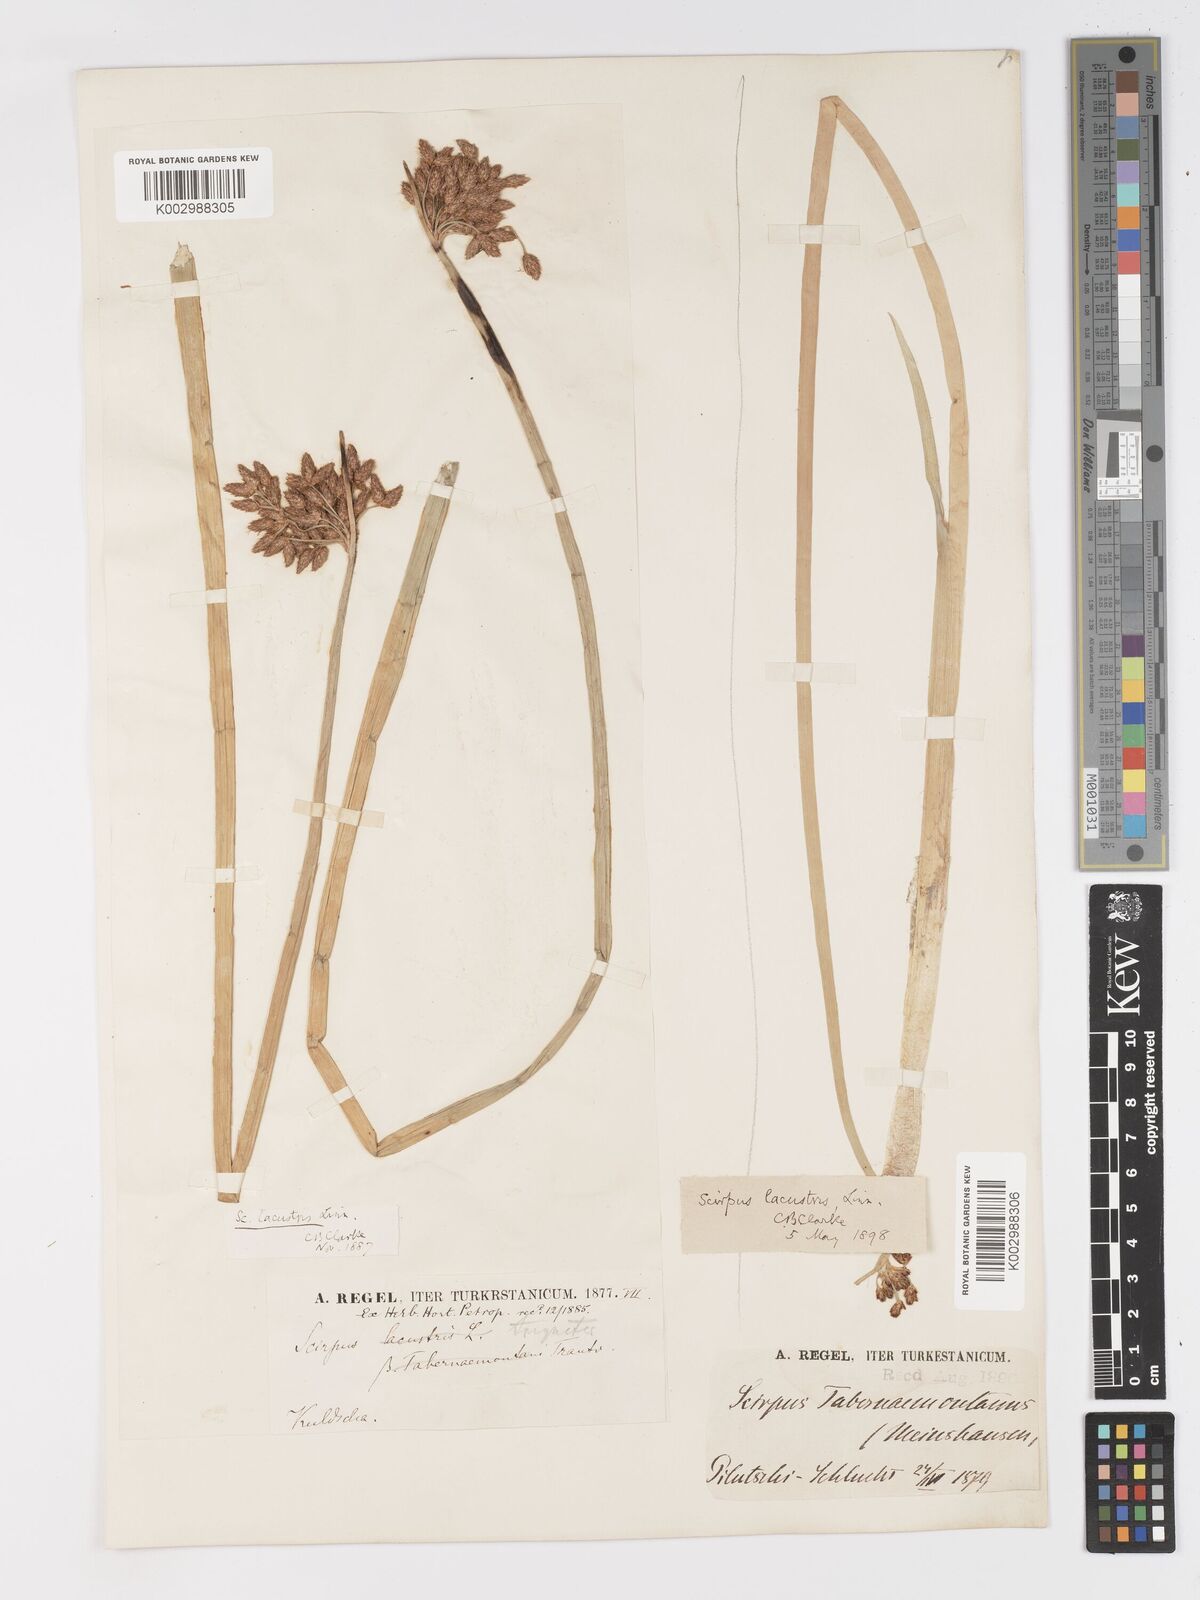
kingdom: Plantae
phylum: Tracheophyta
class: Liliopsida
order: Poales
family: Cyperaceae
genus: Schoenoplectus
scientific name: Schoenoplectus lacustris
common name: Common club-rush
